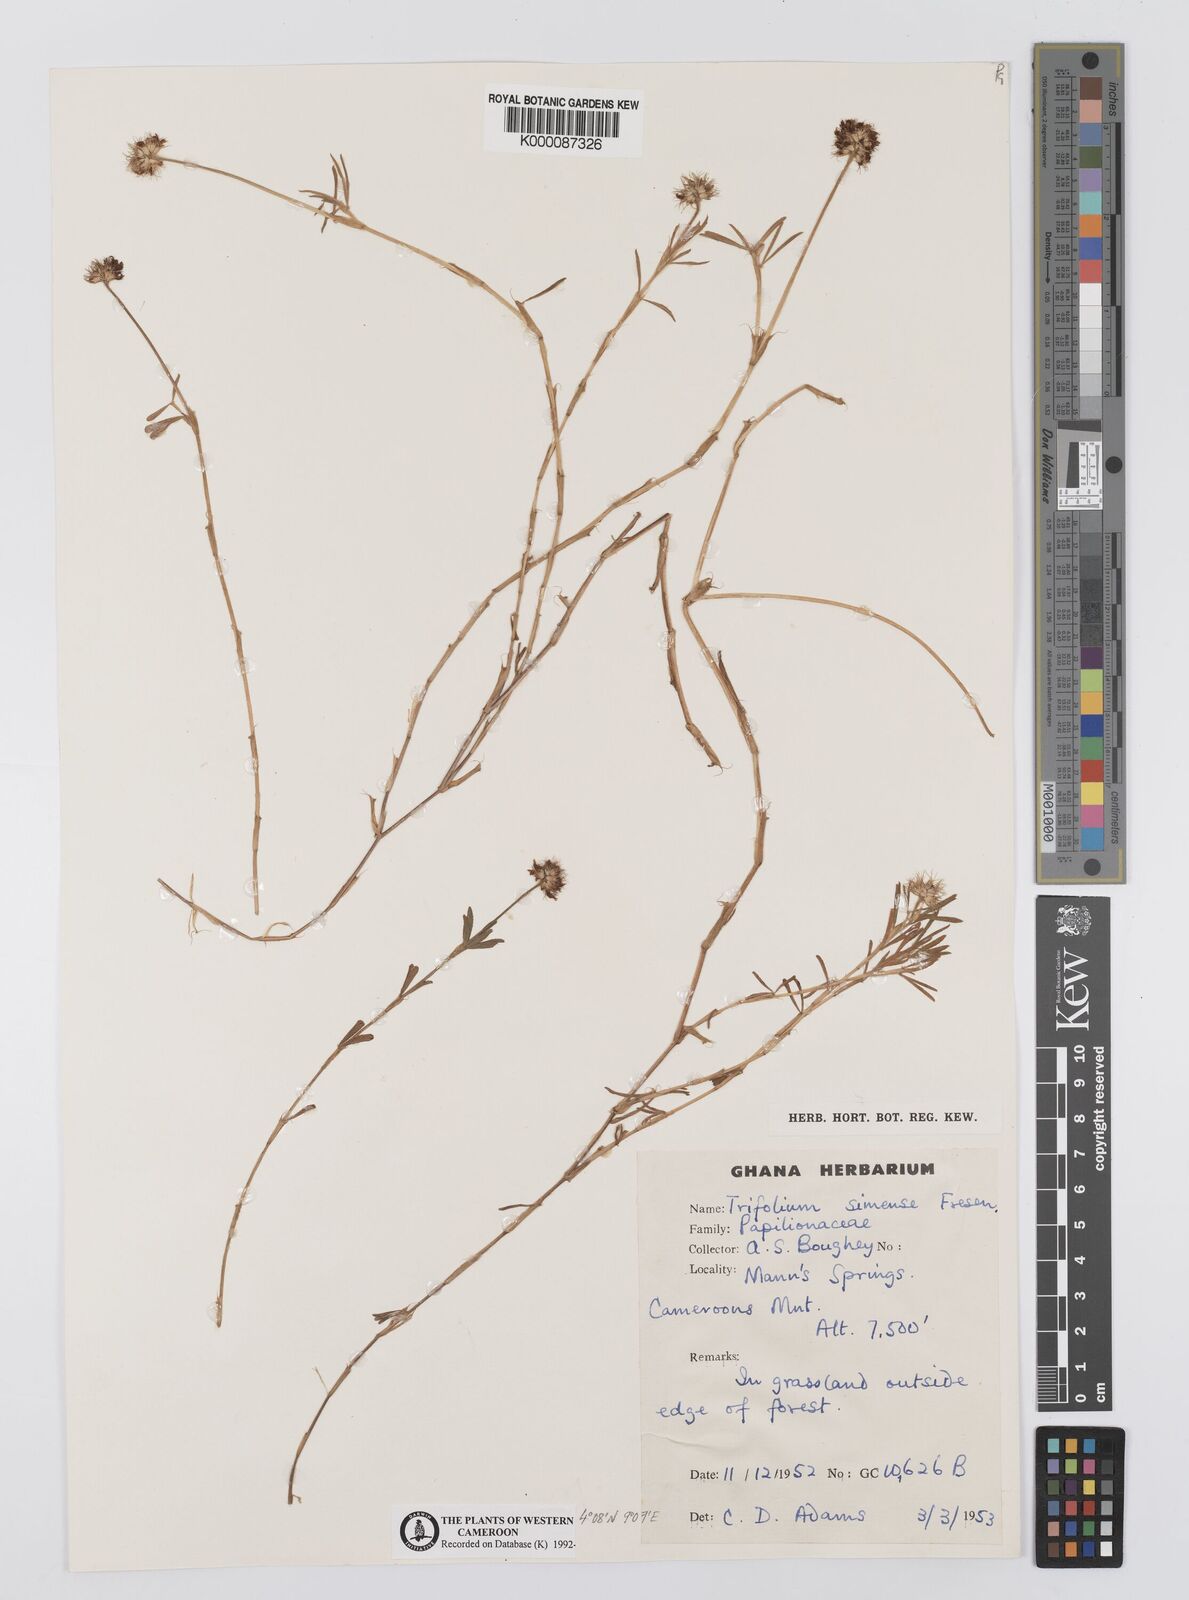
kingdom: Plantae
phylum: Tracheophyta
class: Magnoliopsida
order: Fabales
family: Fabaceae
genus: Trifolium
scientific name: Trifolium simense
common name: Simen clover
